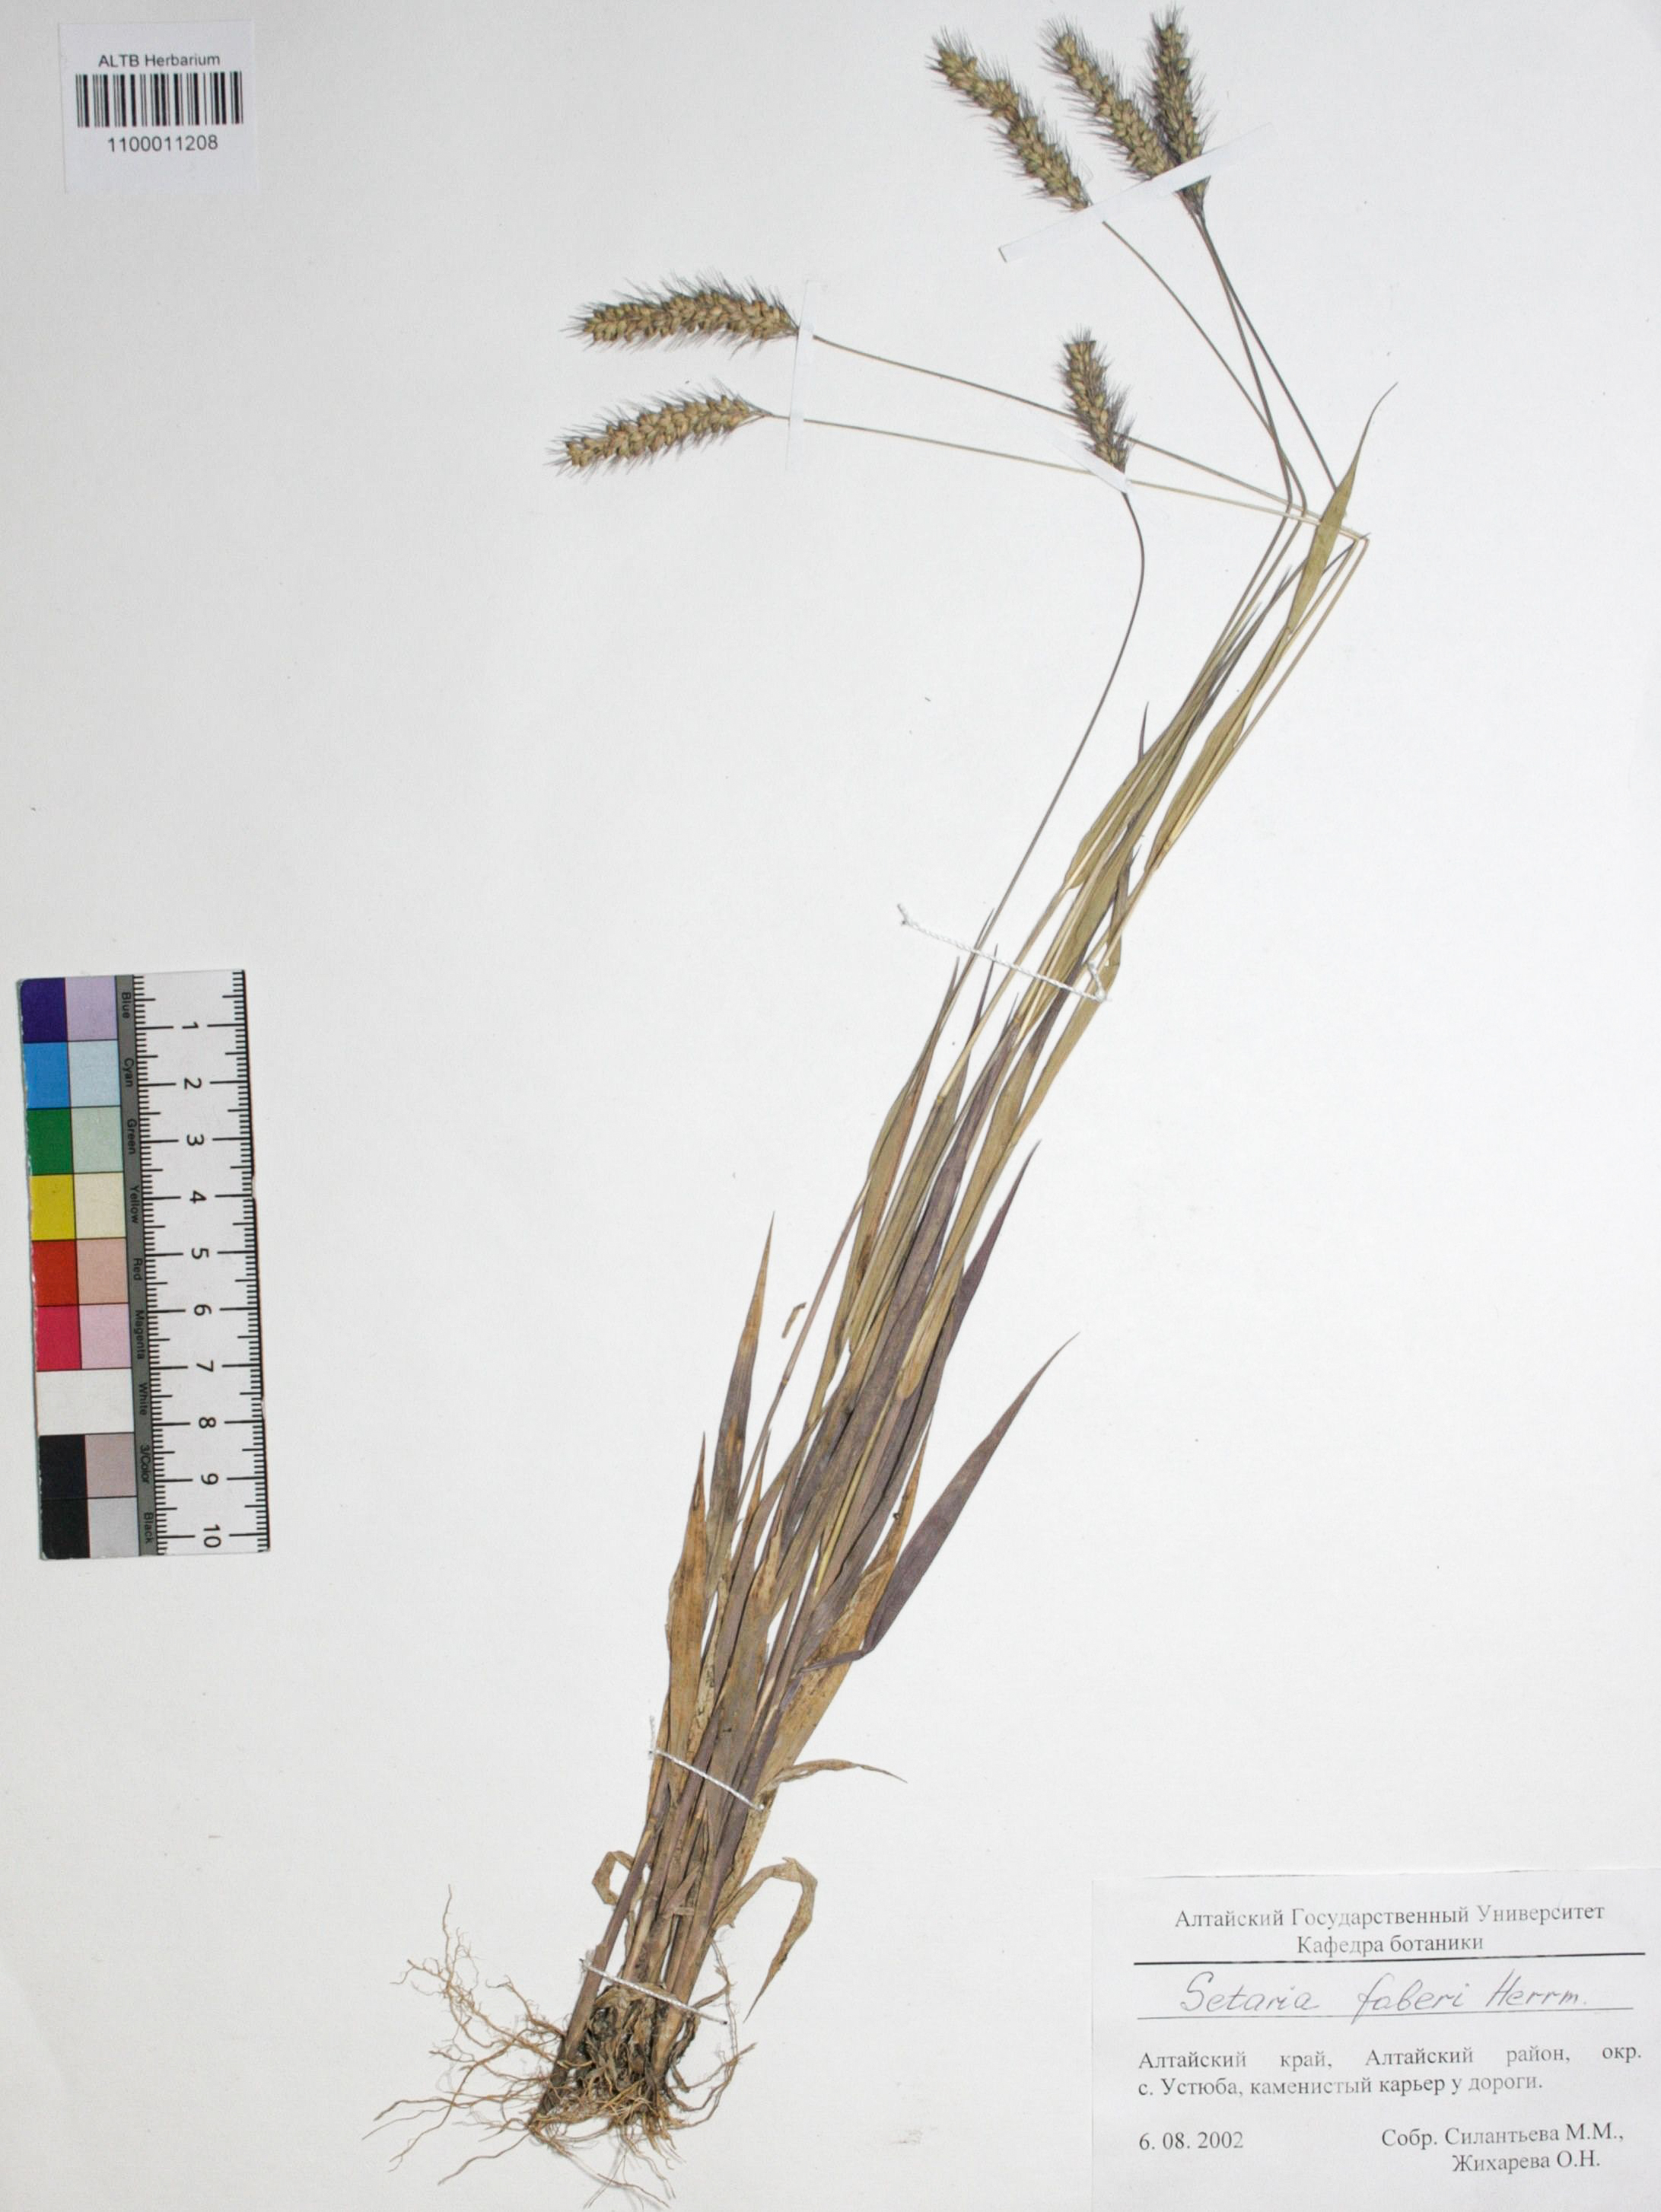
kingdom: Plantae
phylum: Tracheophyta
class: Liliopsida
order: Poales
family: Poaceae
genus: Setaria
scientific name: Setaria faberi
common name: Nodding bristle-grass
